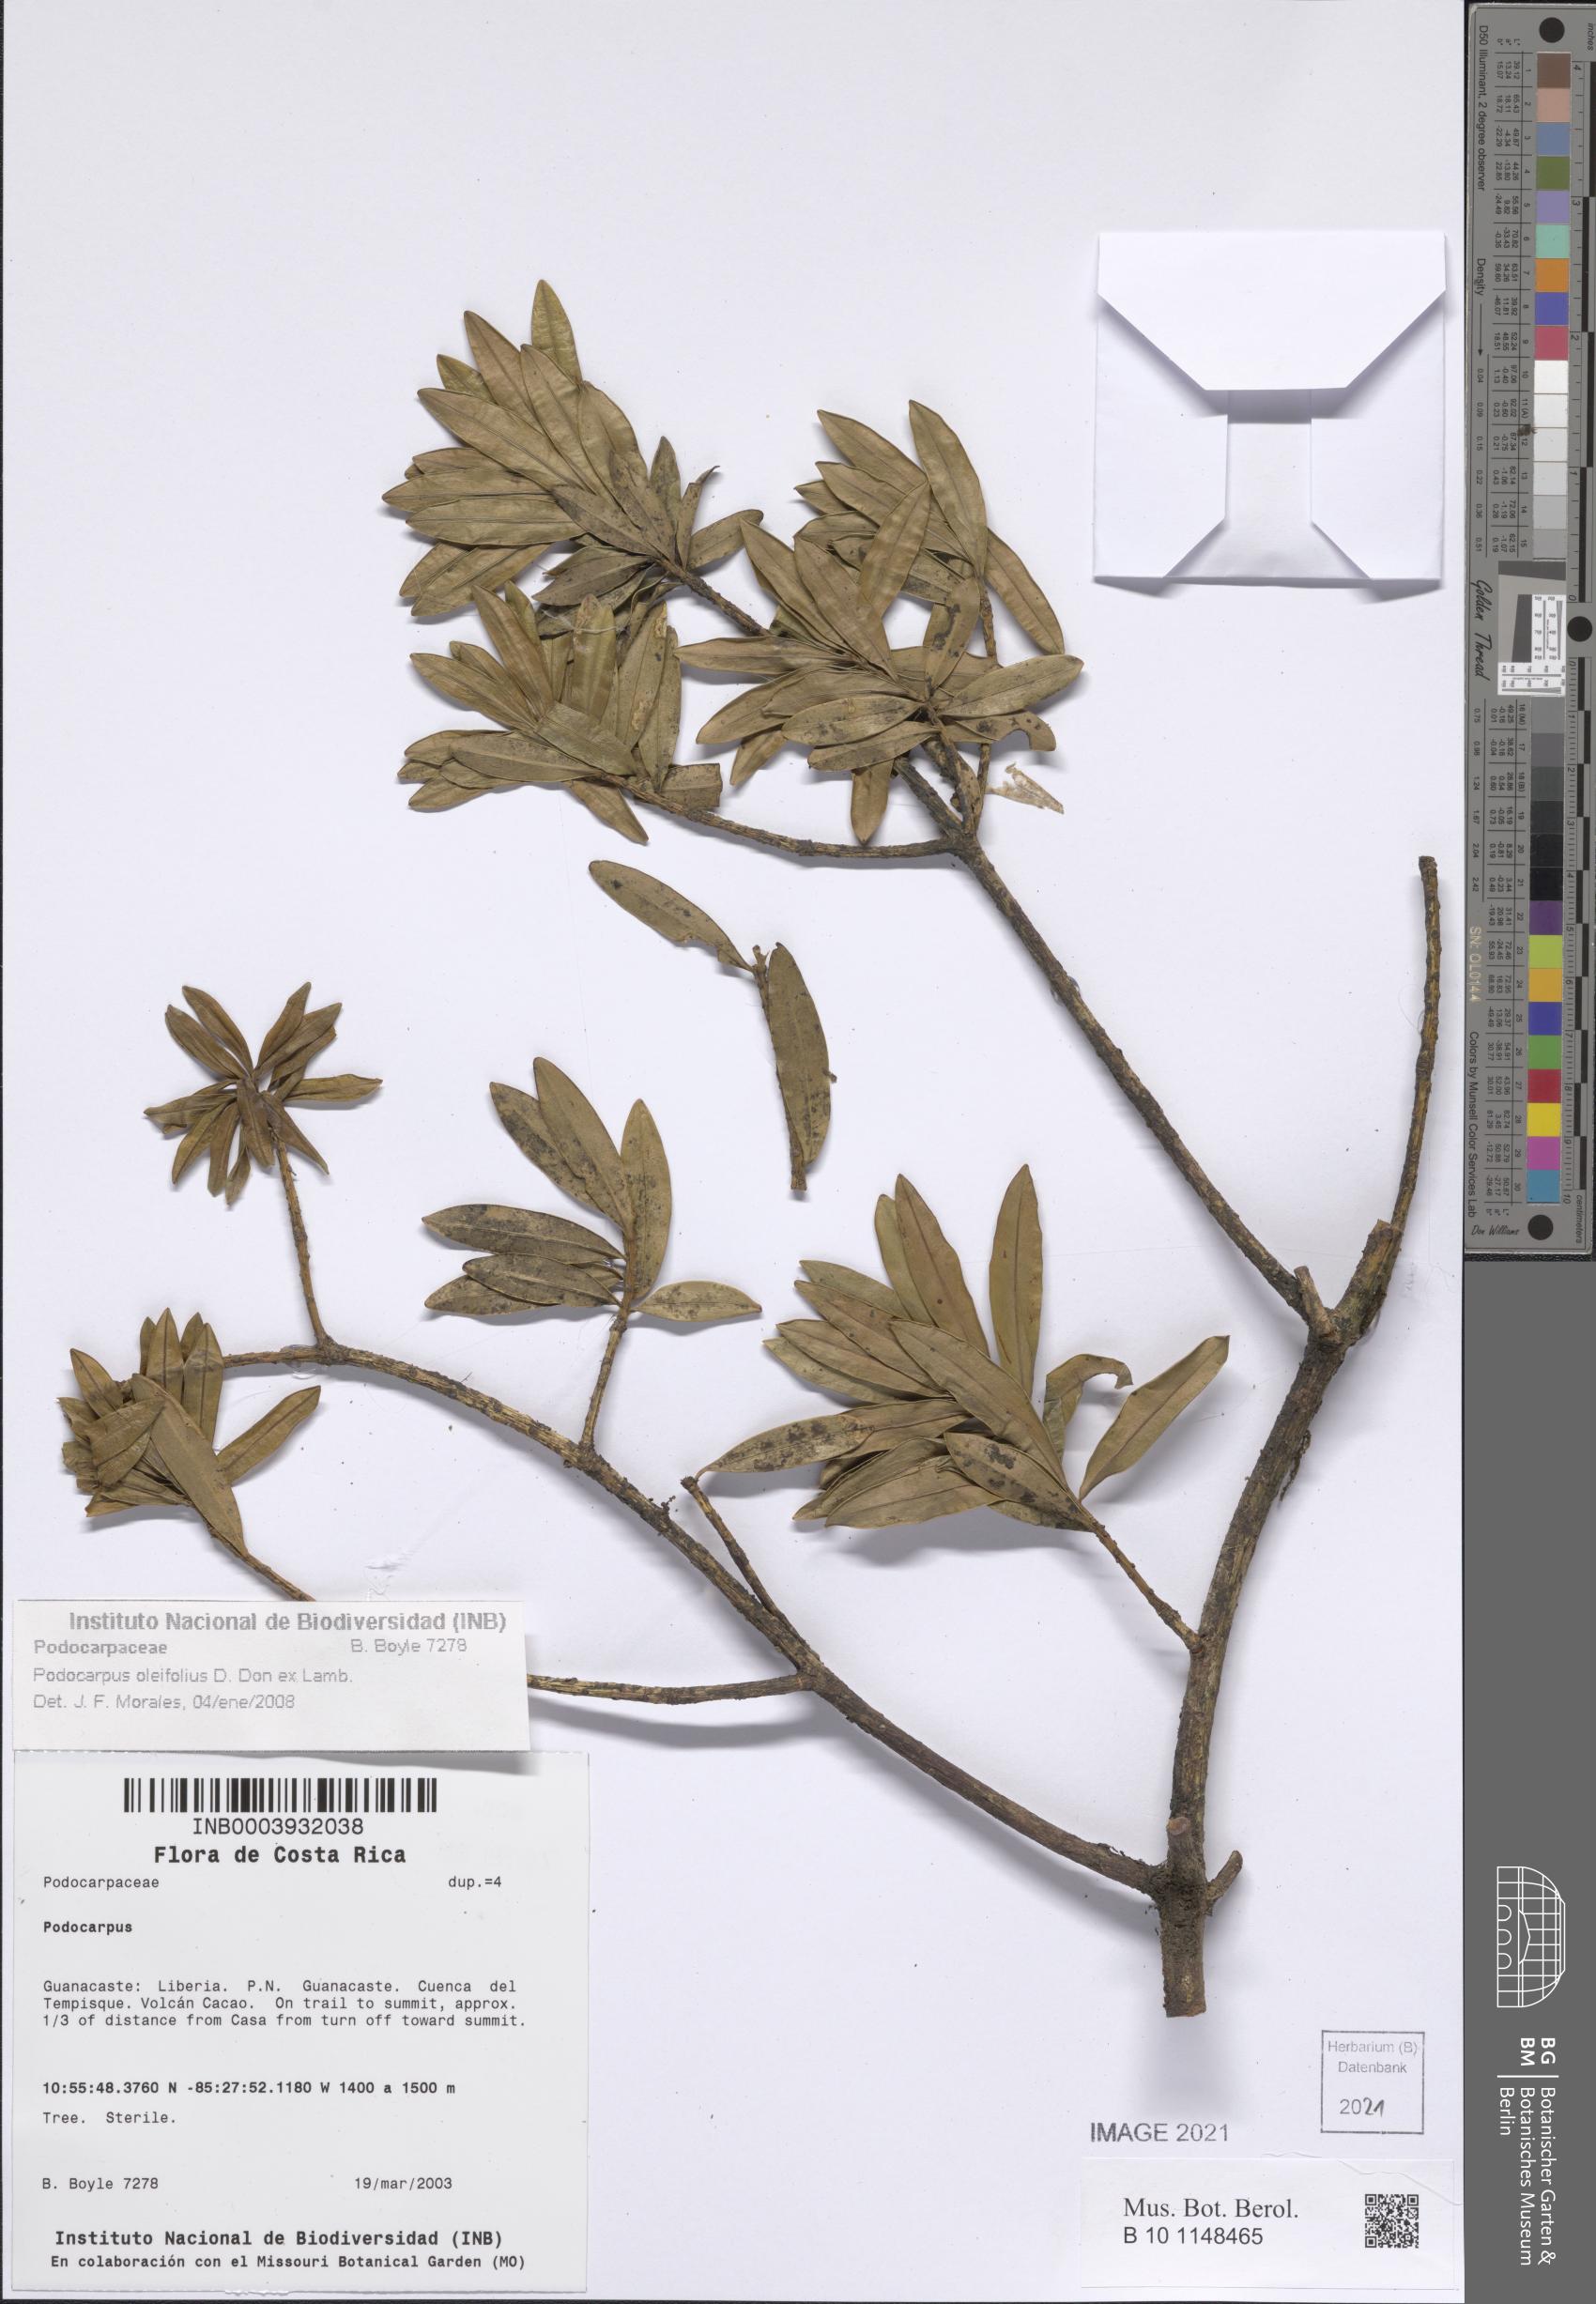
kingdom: Plantae
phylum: Tracheophyta
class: Pinopsida
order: Pinales
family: Podocarpaceae
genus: Podocarpus
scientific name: Podocarpus oleifolius
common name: Olive-leaf podoberry
